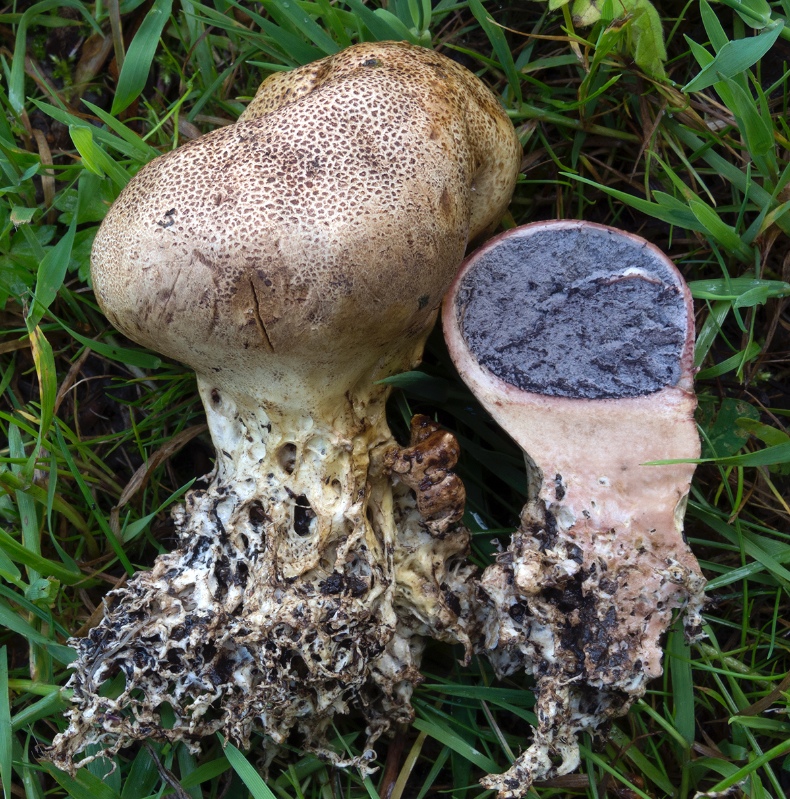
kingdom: Fungi
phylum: Basidiomycota
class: Agaricomycetes
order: Boletales
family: Sclerodermataceae
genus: Scleroderma
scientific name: Scleroderma verrucosum
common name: stilket bruskbold
